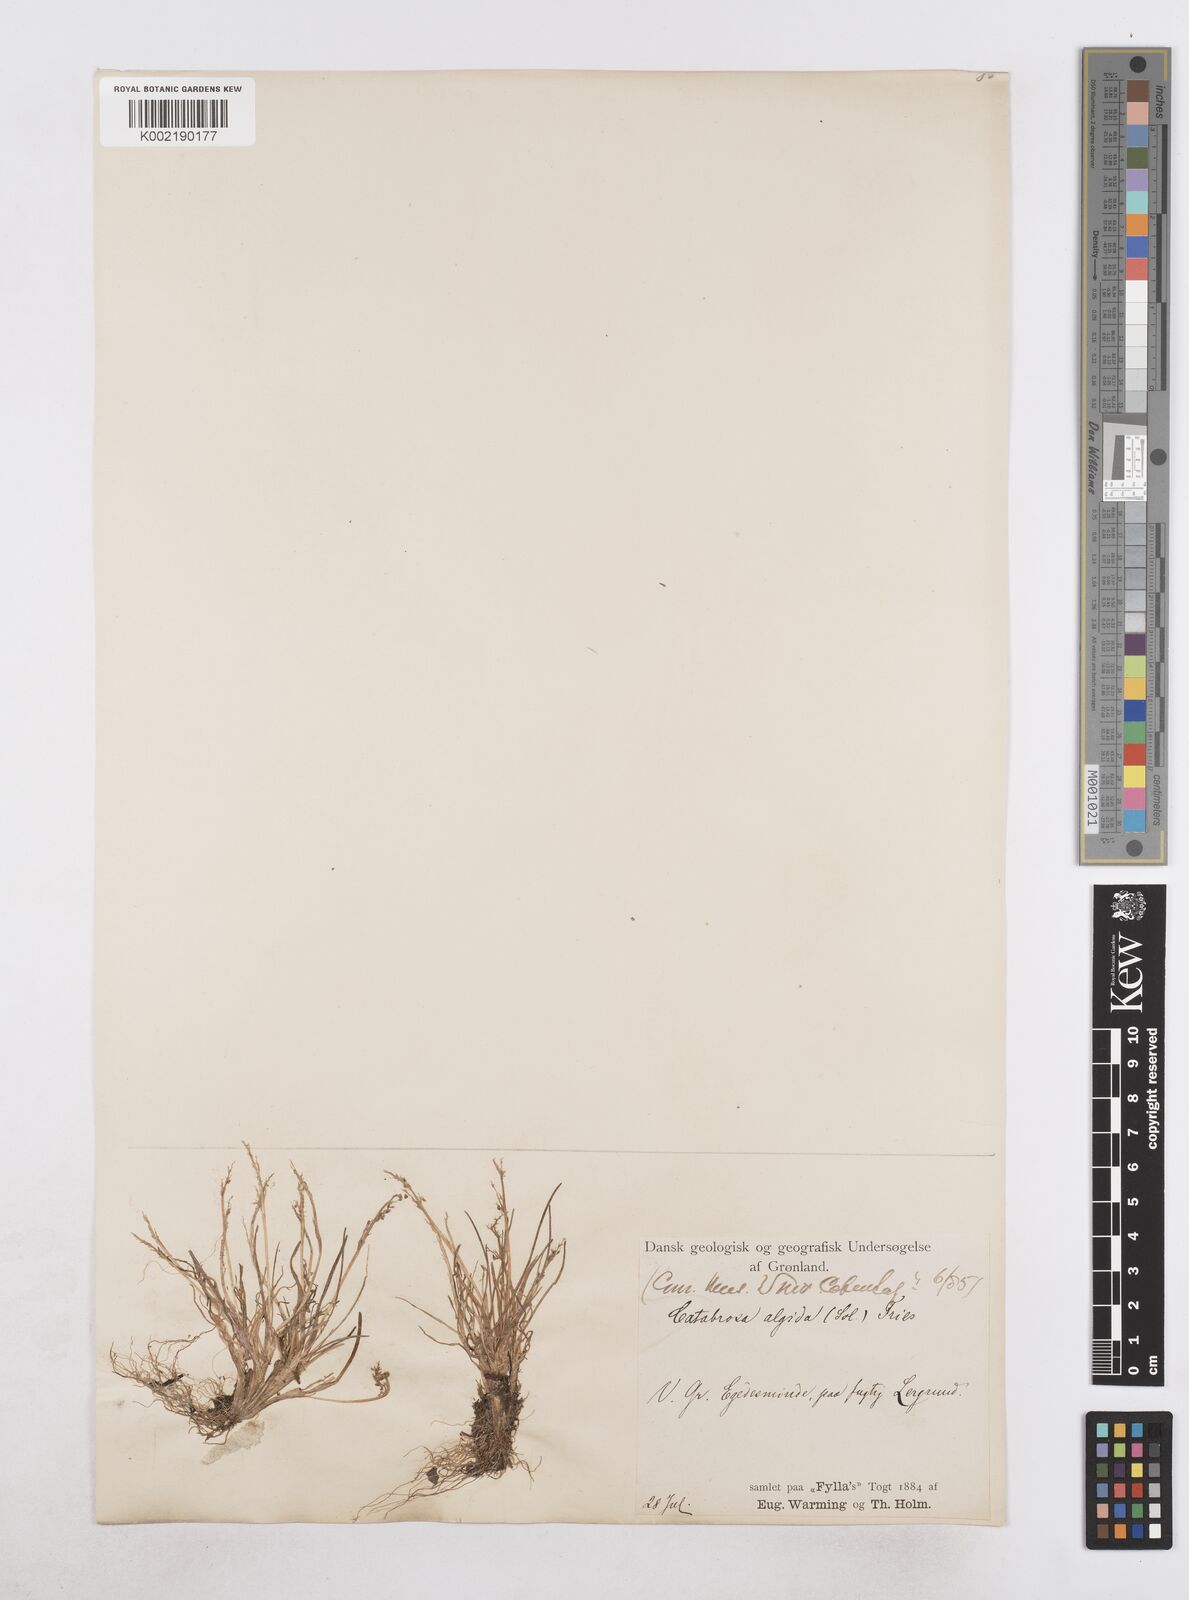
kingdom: Plantae
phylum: Tracheophyta
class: Liliopsida
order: Poales
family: Poaceae
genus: Phippsia
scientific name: Phippsia algida
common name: Ice grass
